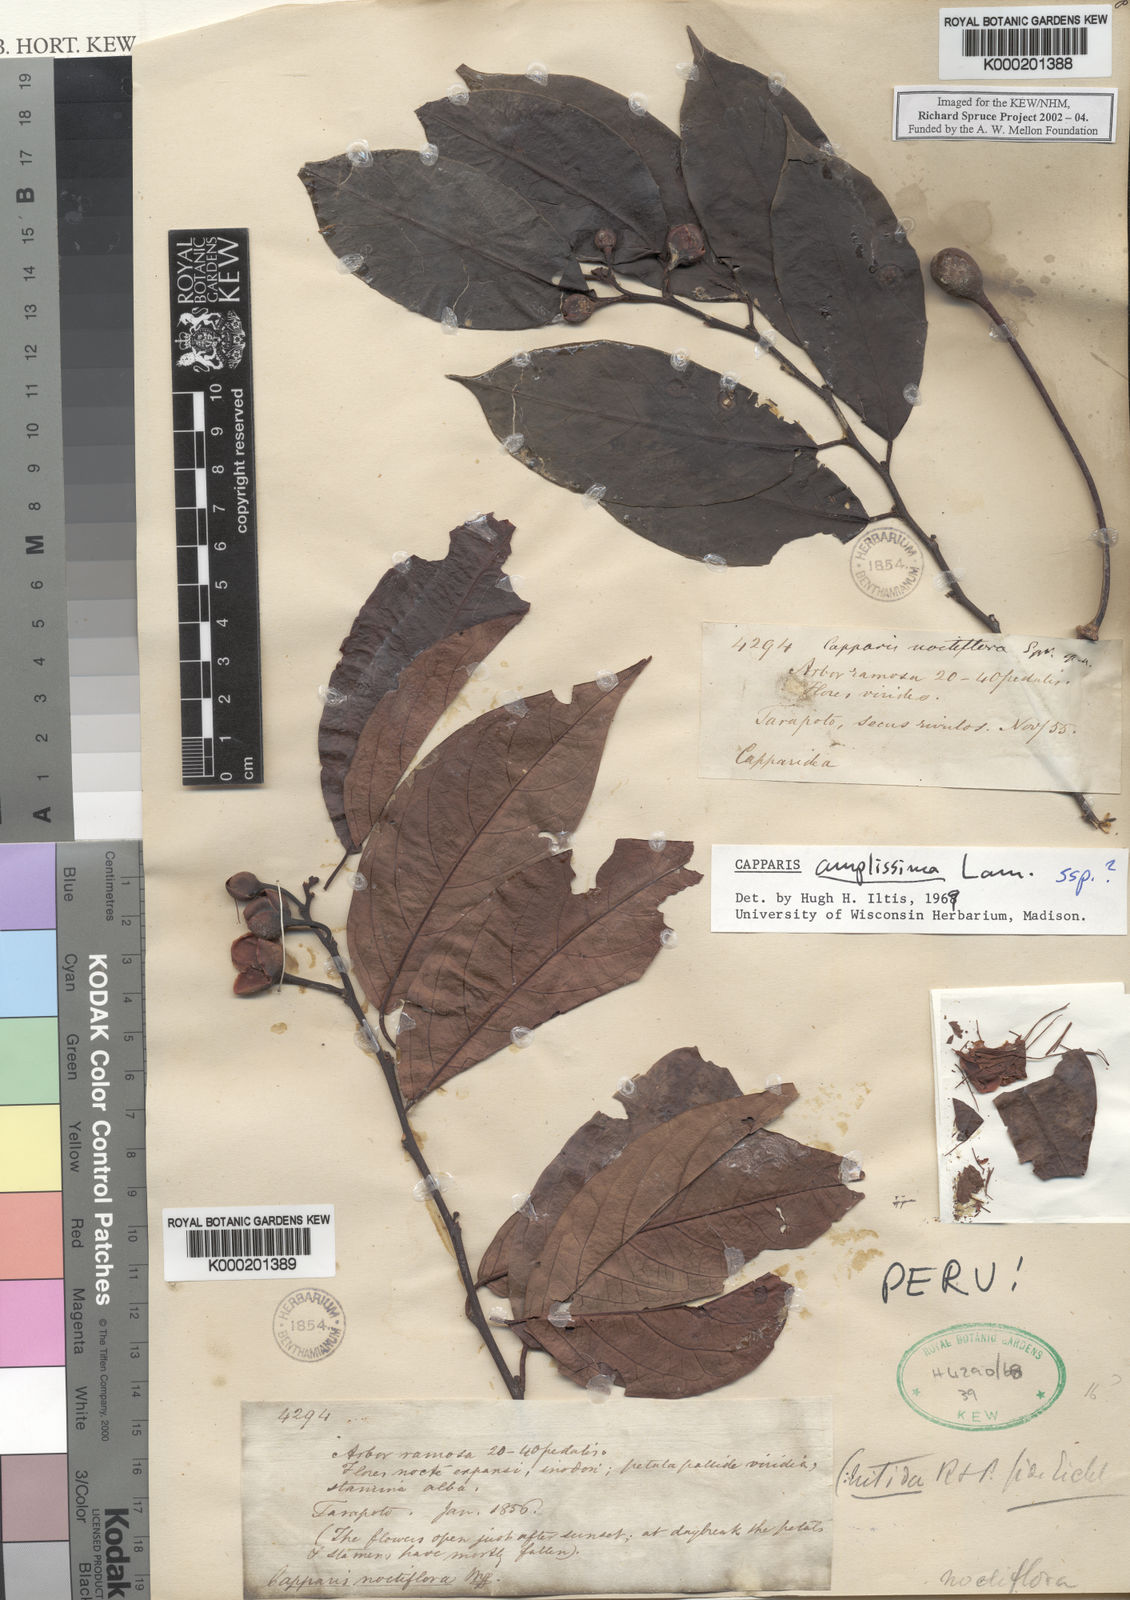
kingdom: Plantae
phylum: Tracheophyta
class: Magnoliopsida
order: Brassicales
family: Capparaceae
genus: Cynophalla
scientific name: Cynophalla amplissima
